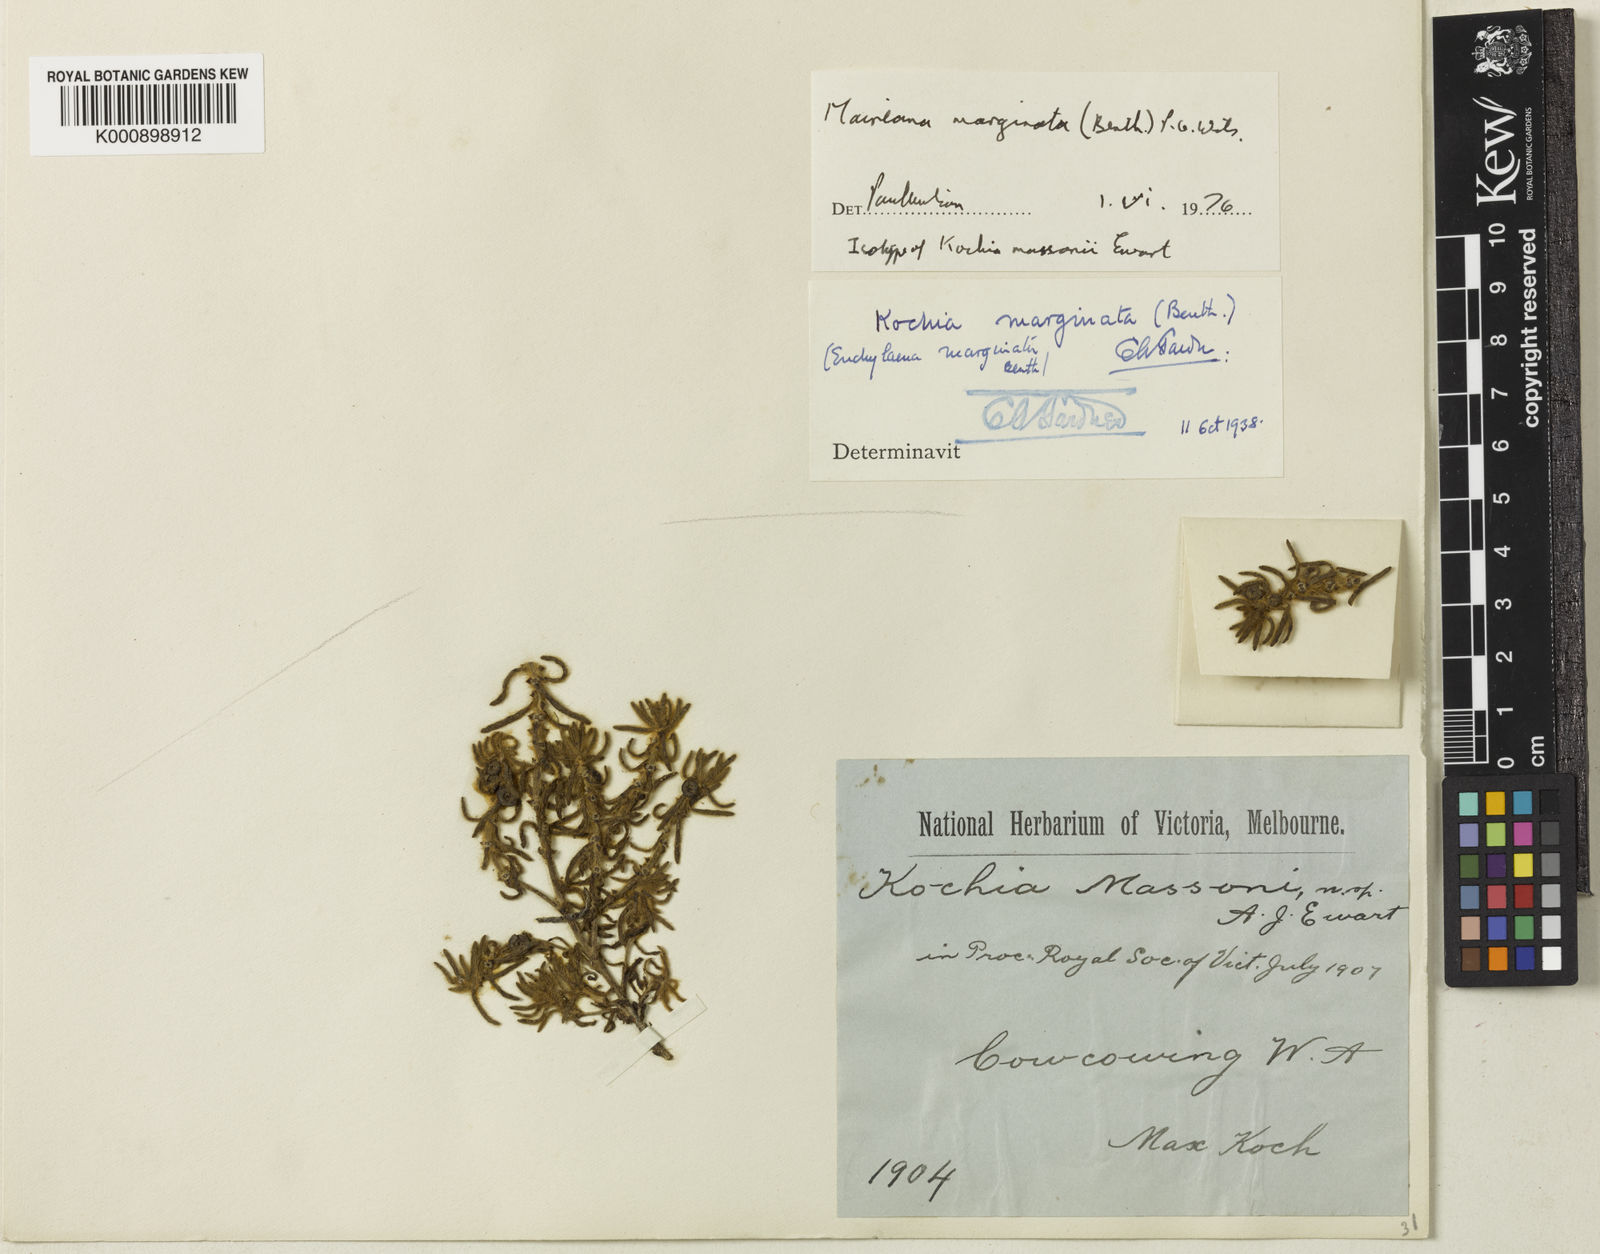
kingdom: Plantae
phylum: Tracheophyta
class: Magnoliopsida
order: Caryophyllales
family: Amaranthaceae
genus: Maireana
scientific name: Maireana marginata
